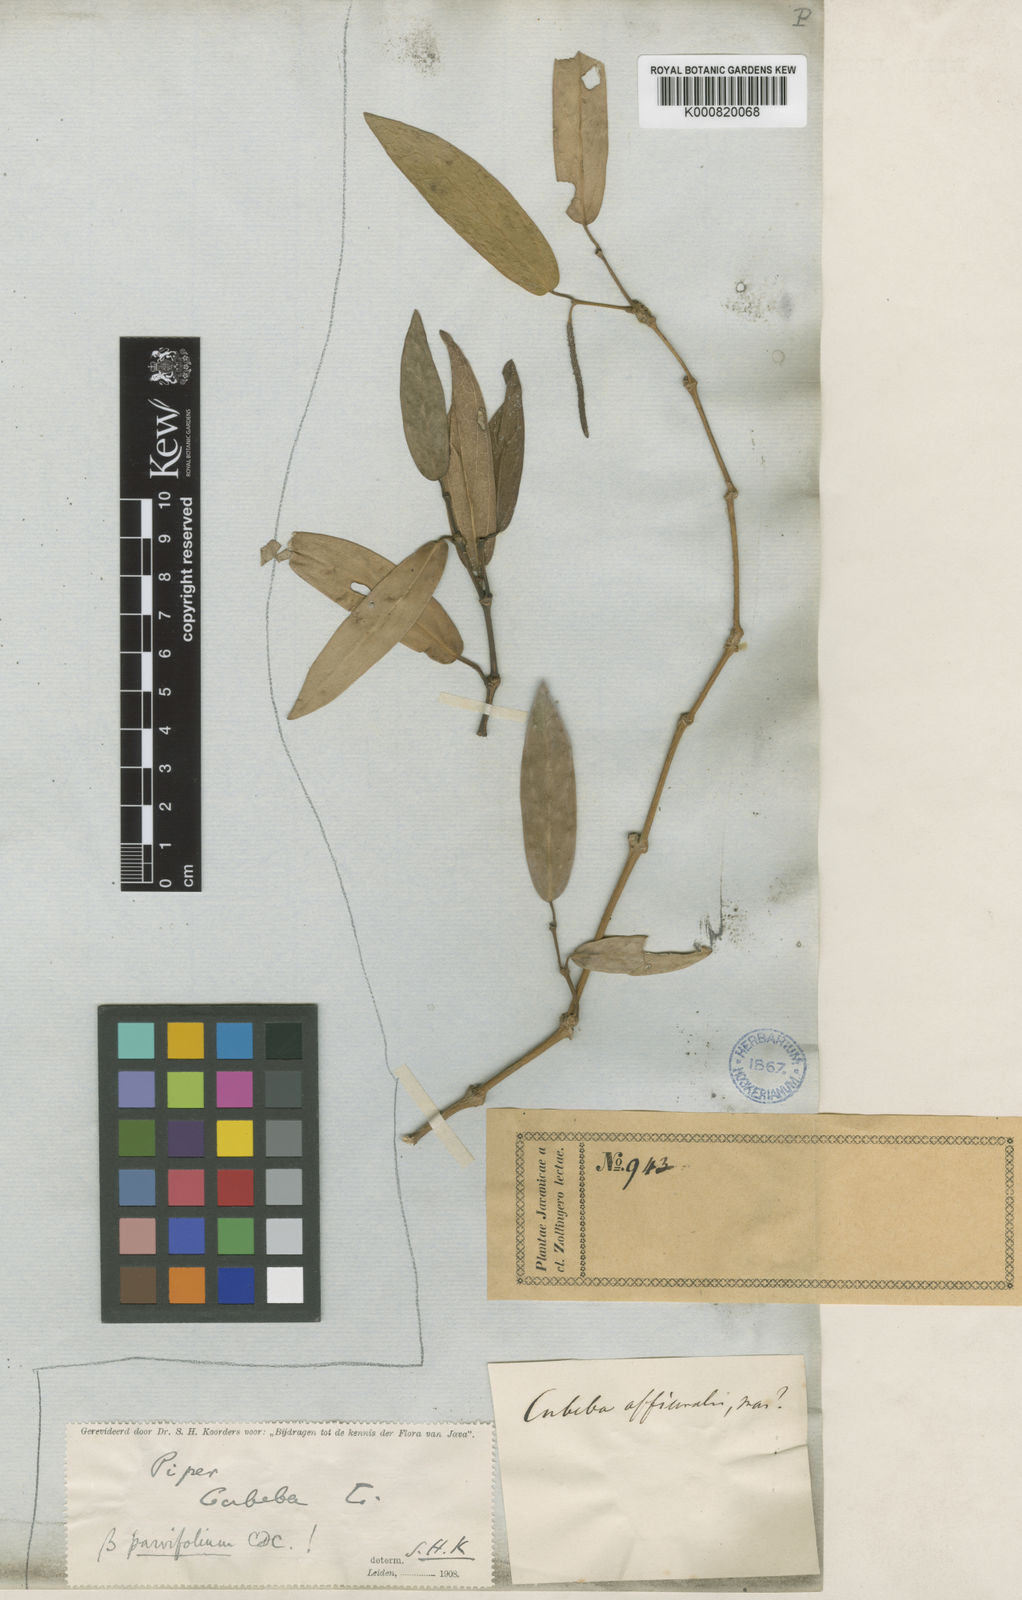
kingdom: Plantae
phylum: Tracheophyta
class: Magnoliopsida
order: Piperales
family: Piperaceae
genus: Piper
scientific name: Piper cubeba
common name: Cubeb
